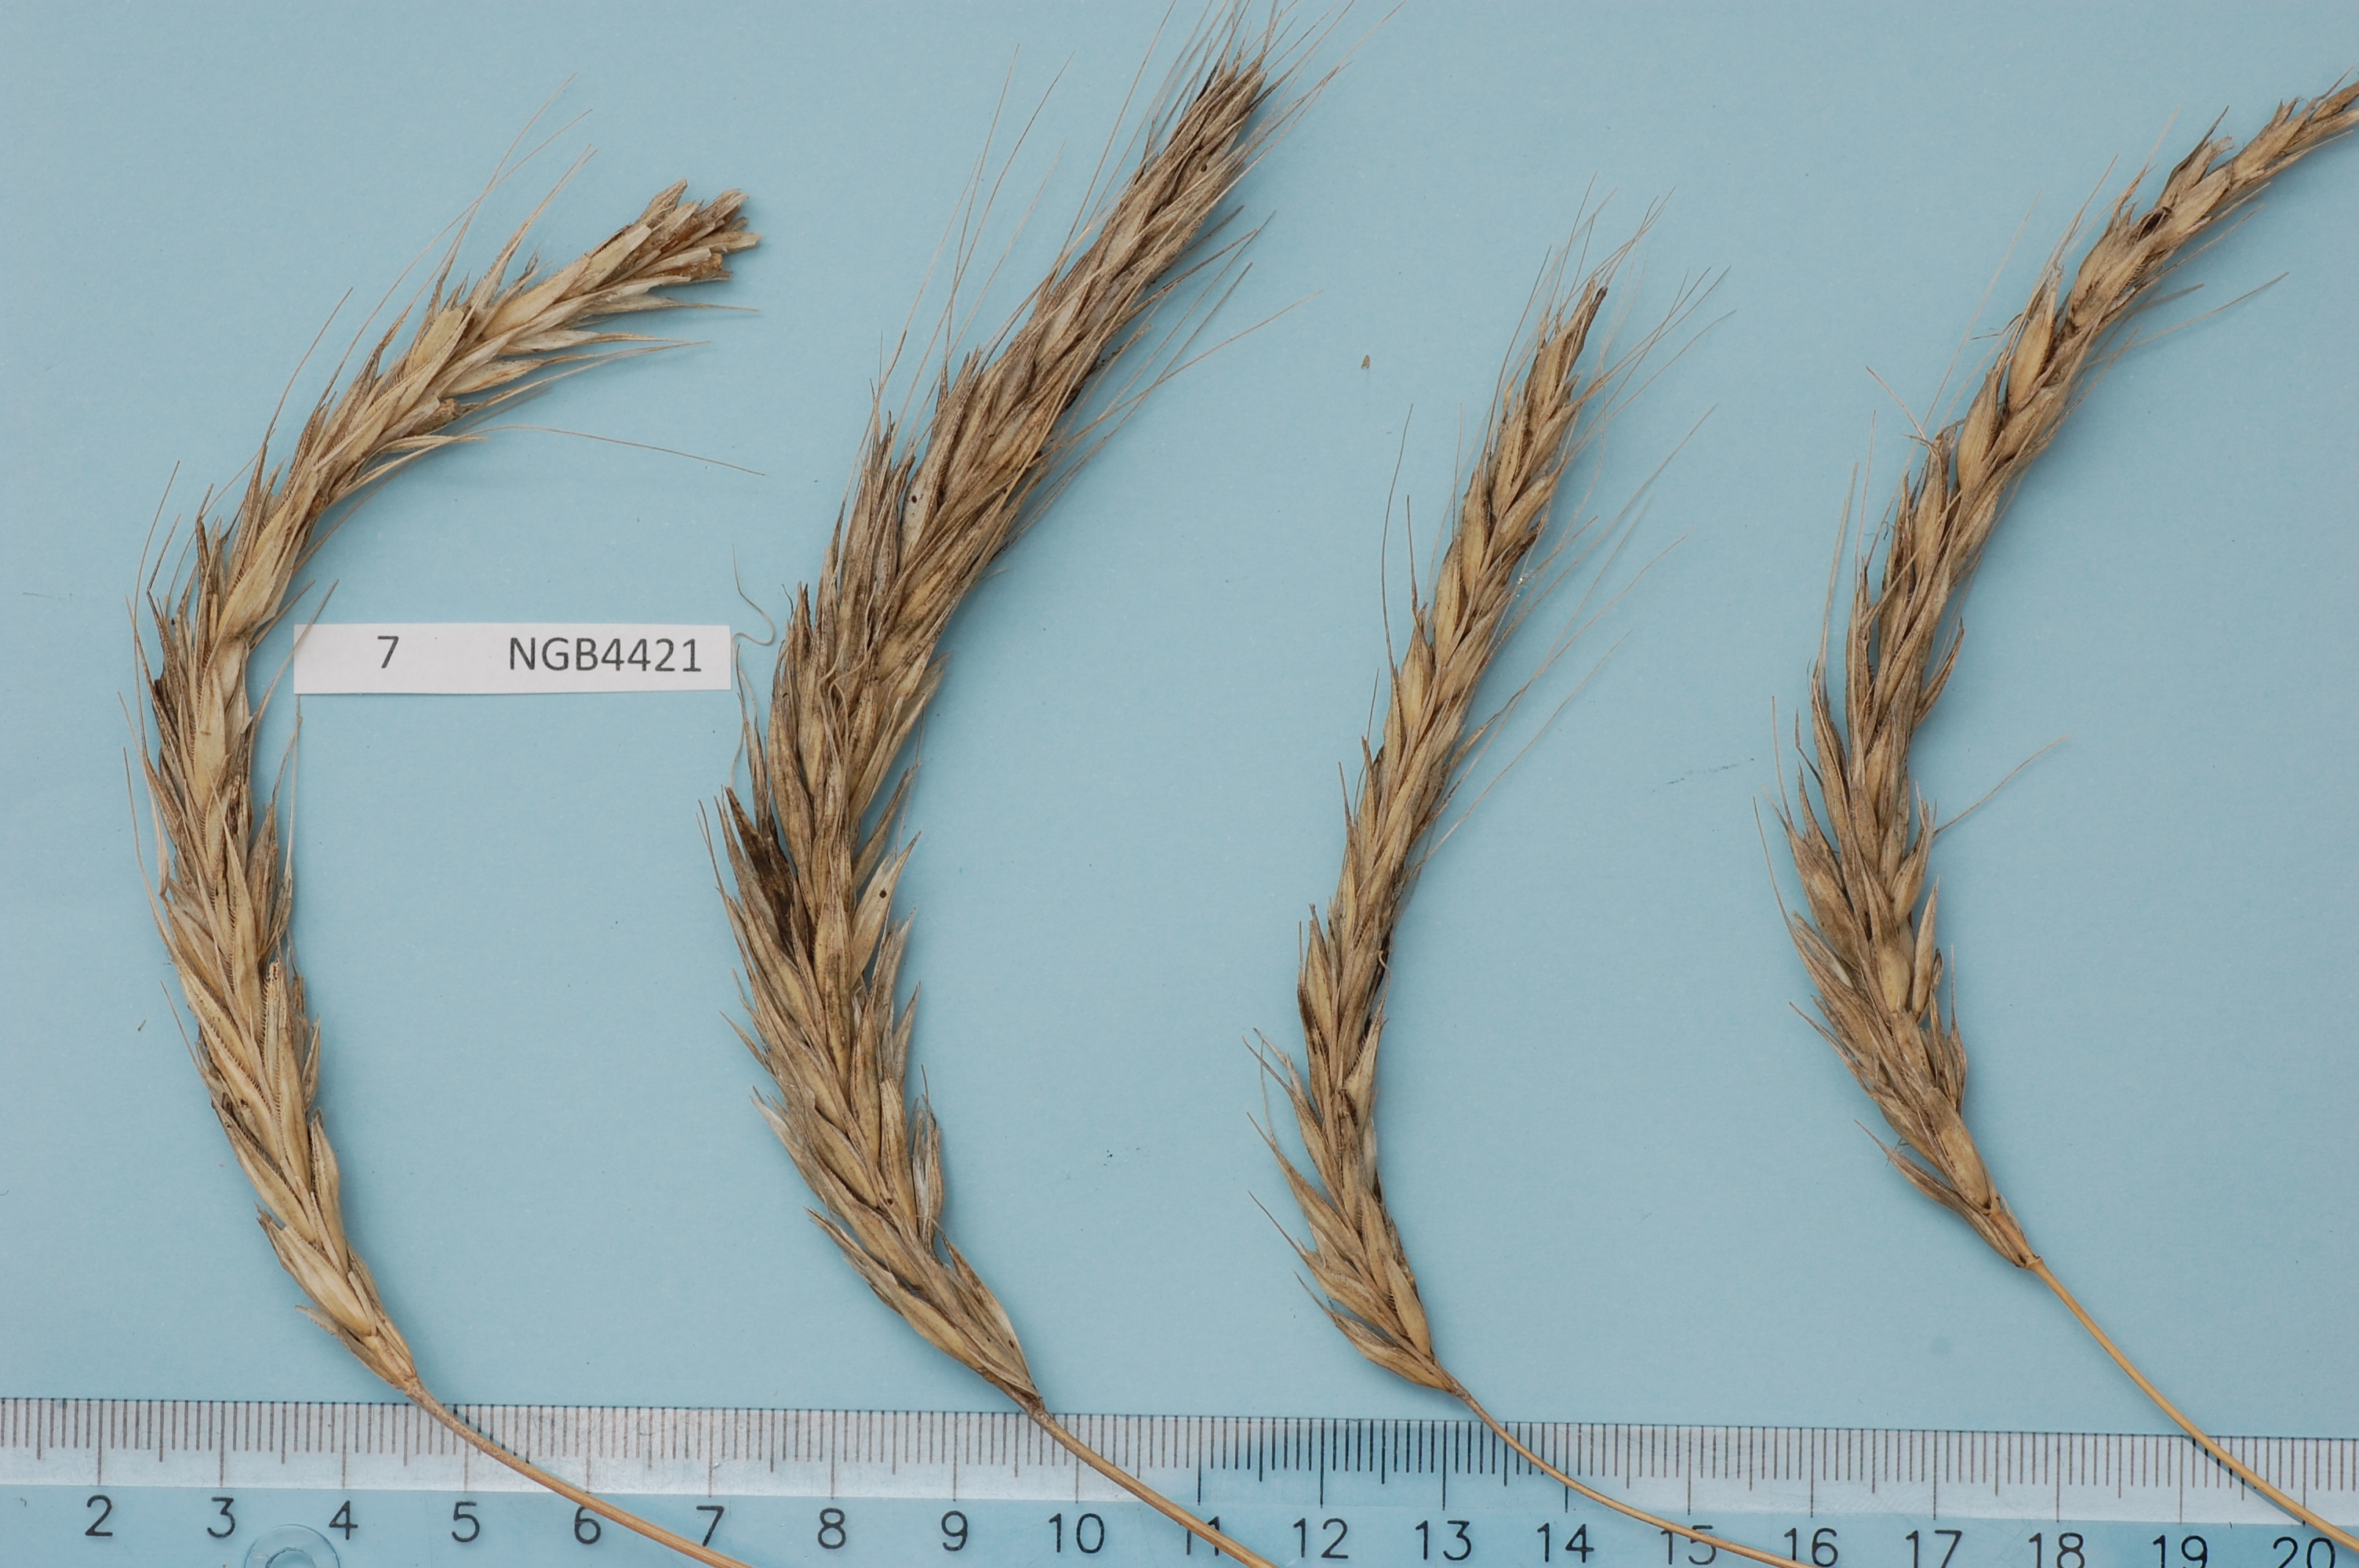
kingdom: Plantae
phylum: Tracheophyta
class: Liliopsida
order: Poales
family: Poaceae
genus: Secale
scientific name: Secale cereale
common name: Rye
